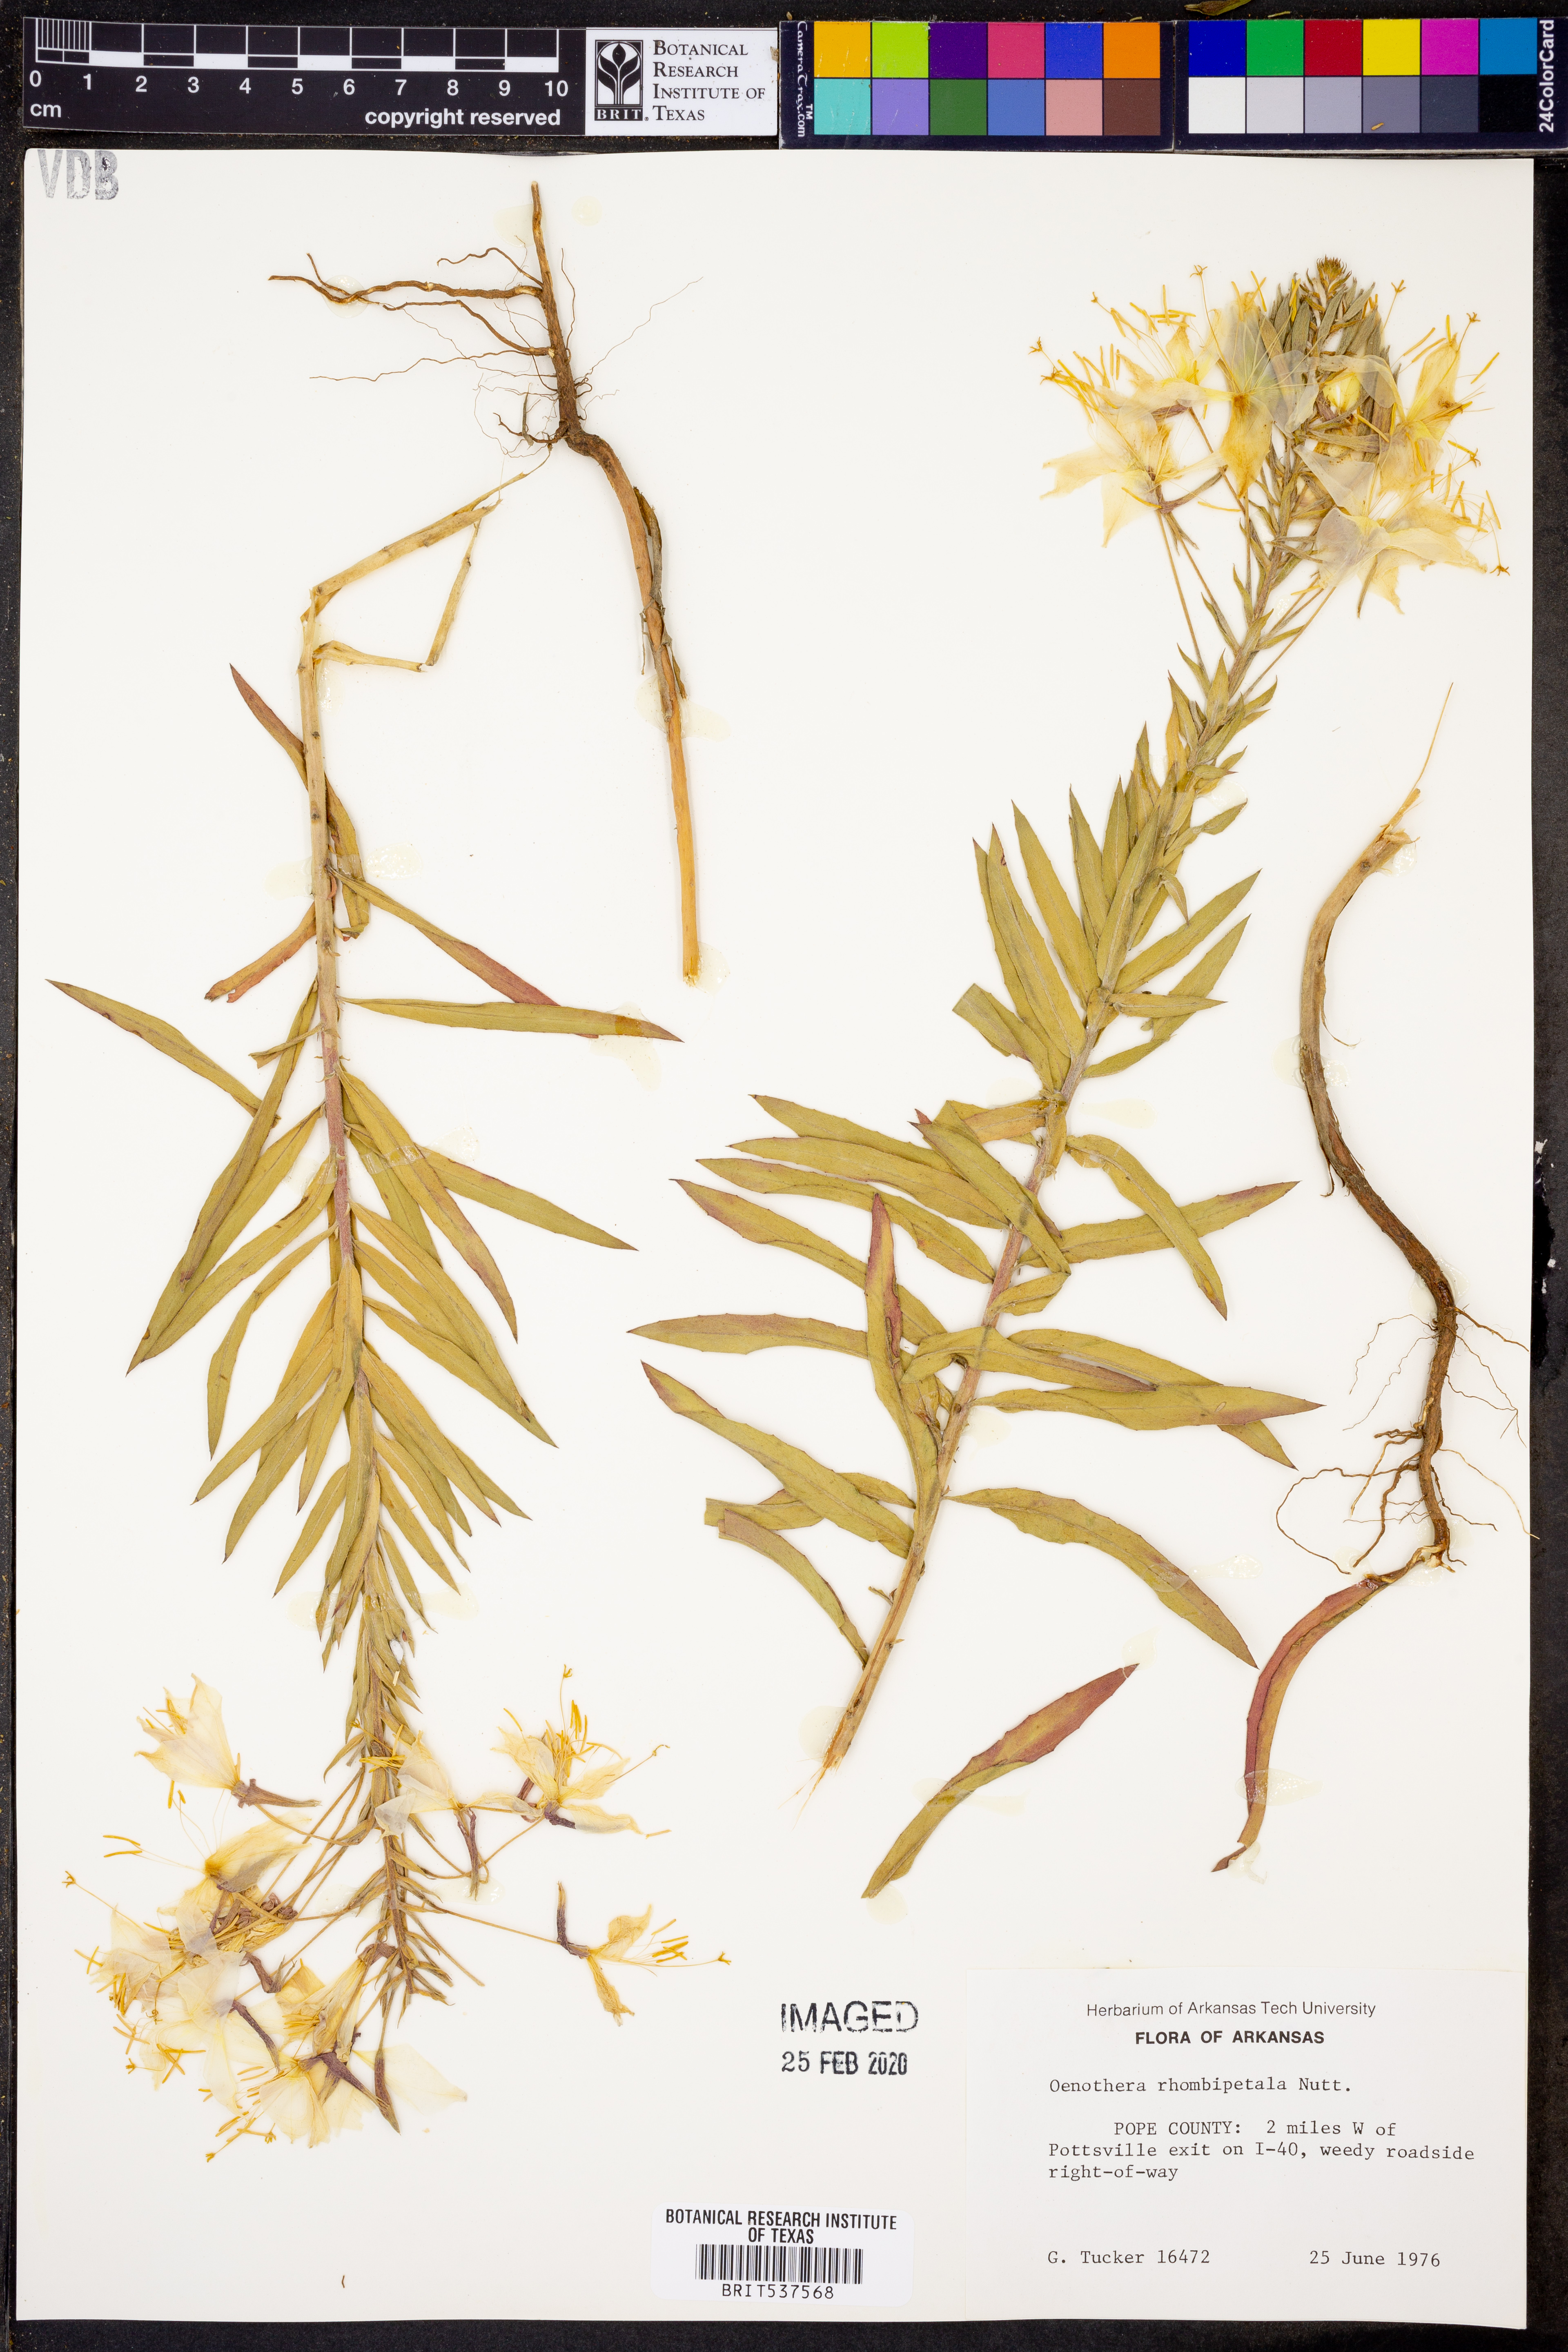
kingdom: Plantae
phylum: Tracheophyta
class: Magnoliopsida
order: Myrtales
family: Onagraceae
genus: Oenothera
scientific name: Oenothera rhombipetala
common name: Four-points evening-primrose
